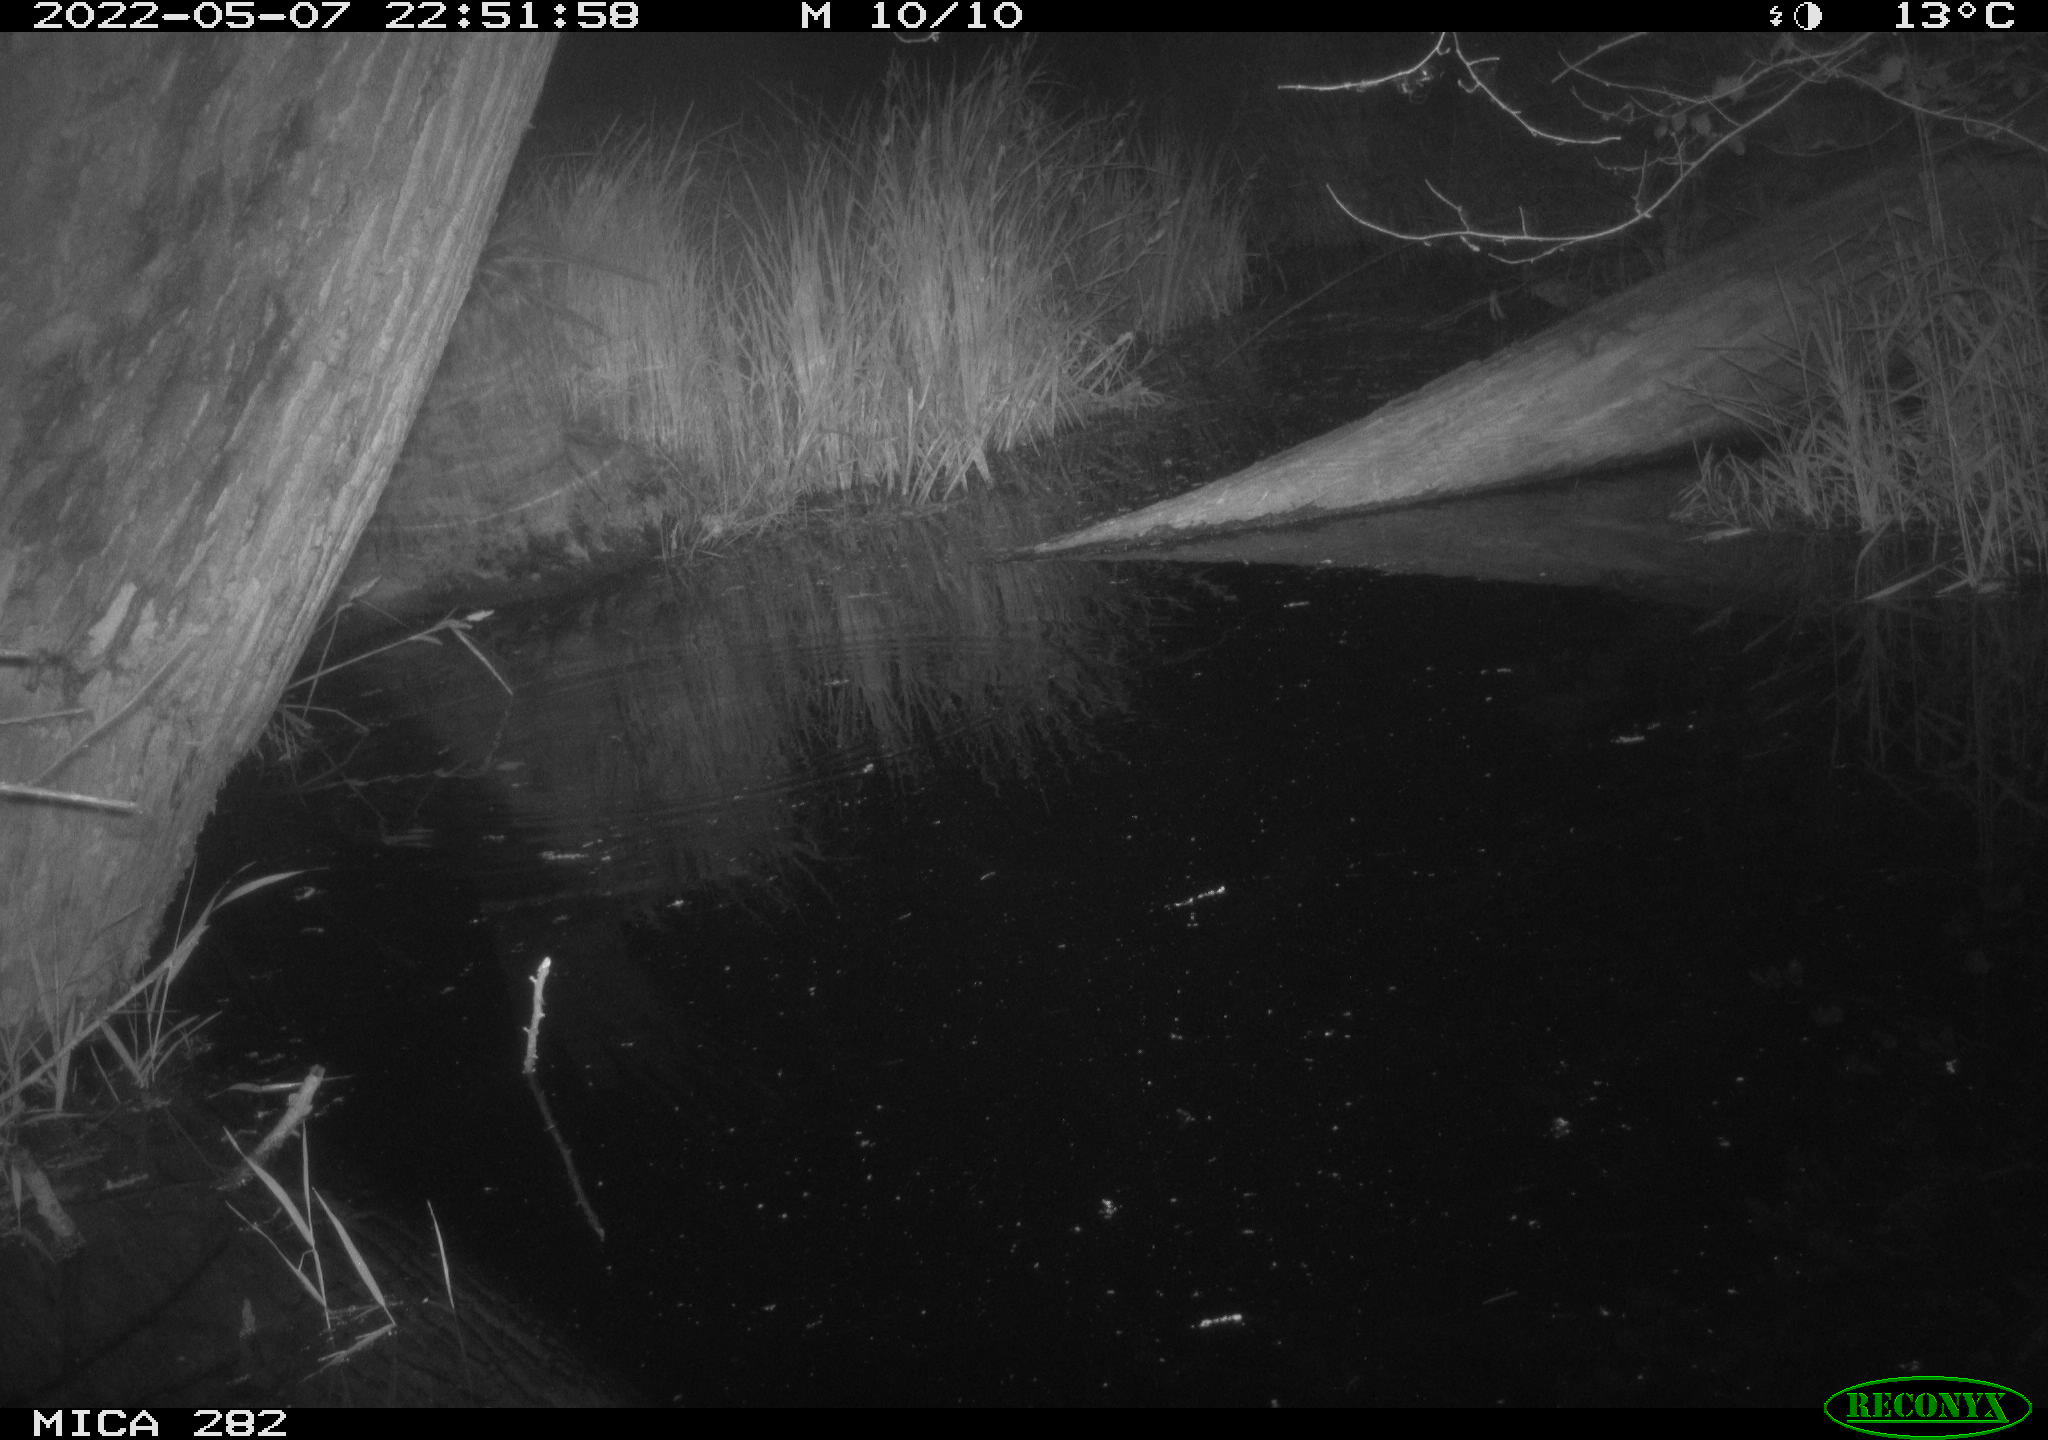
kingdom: Animalia
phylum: Chordata
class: Mammalia
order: Carnivora
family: Canidae
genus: Vulpes
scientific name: Vulpes vulpes
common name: Red fox
